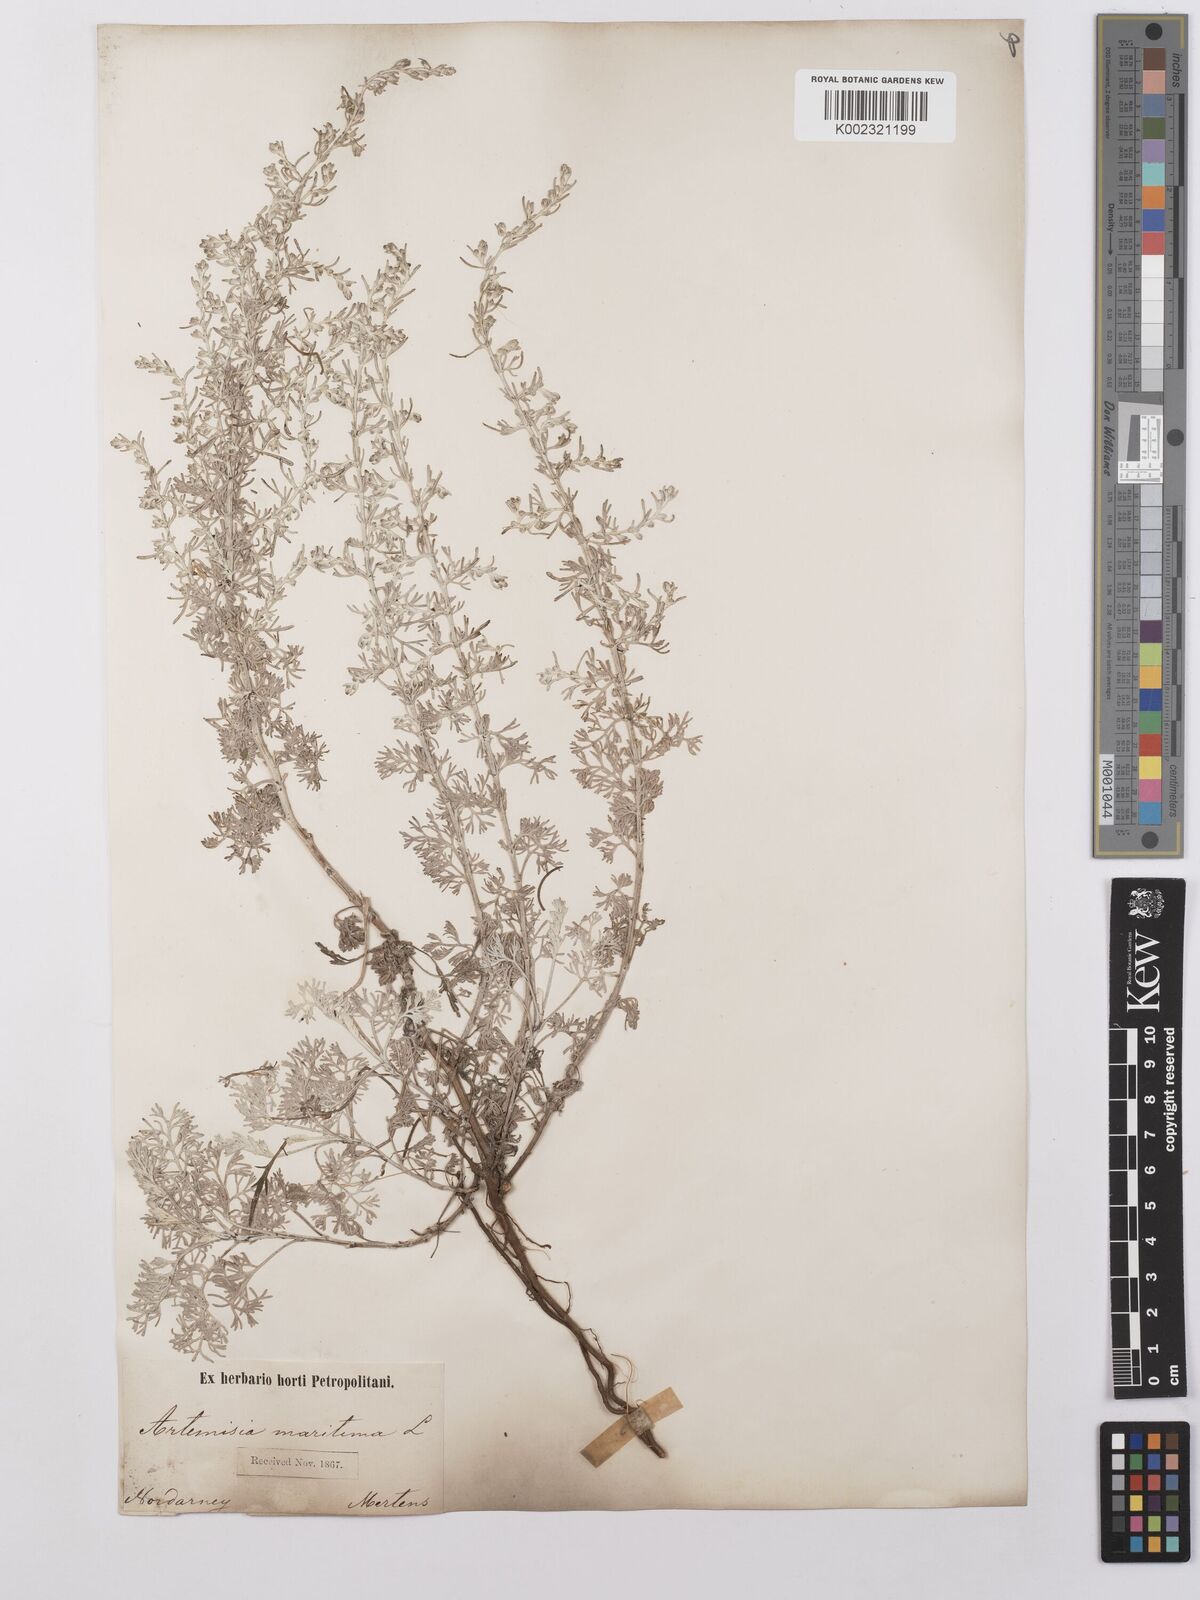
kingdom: Plantae
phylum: Tracheophyta
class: Magnoliopsida
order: Asterales
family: Asteraceae
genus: Artemisia
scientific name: Artemisia maritima
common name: Wormseed
